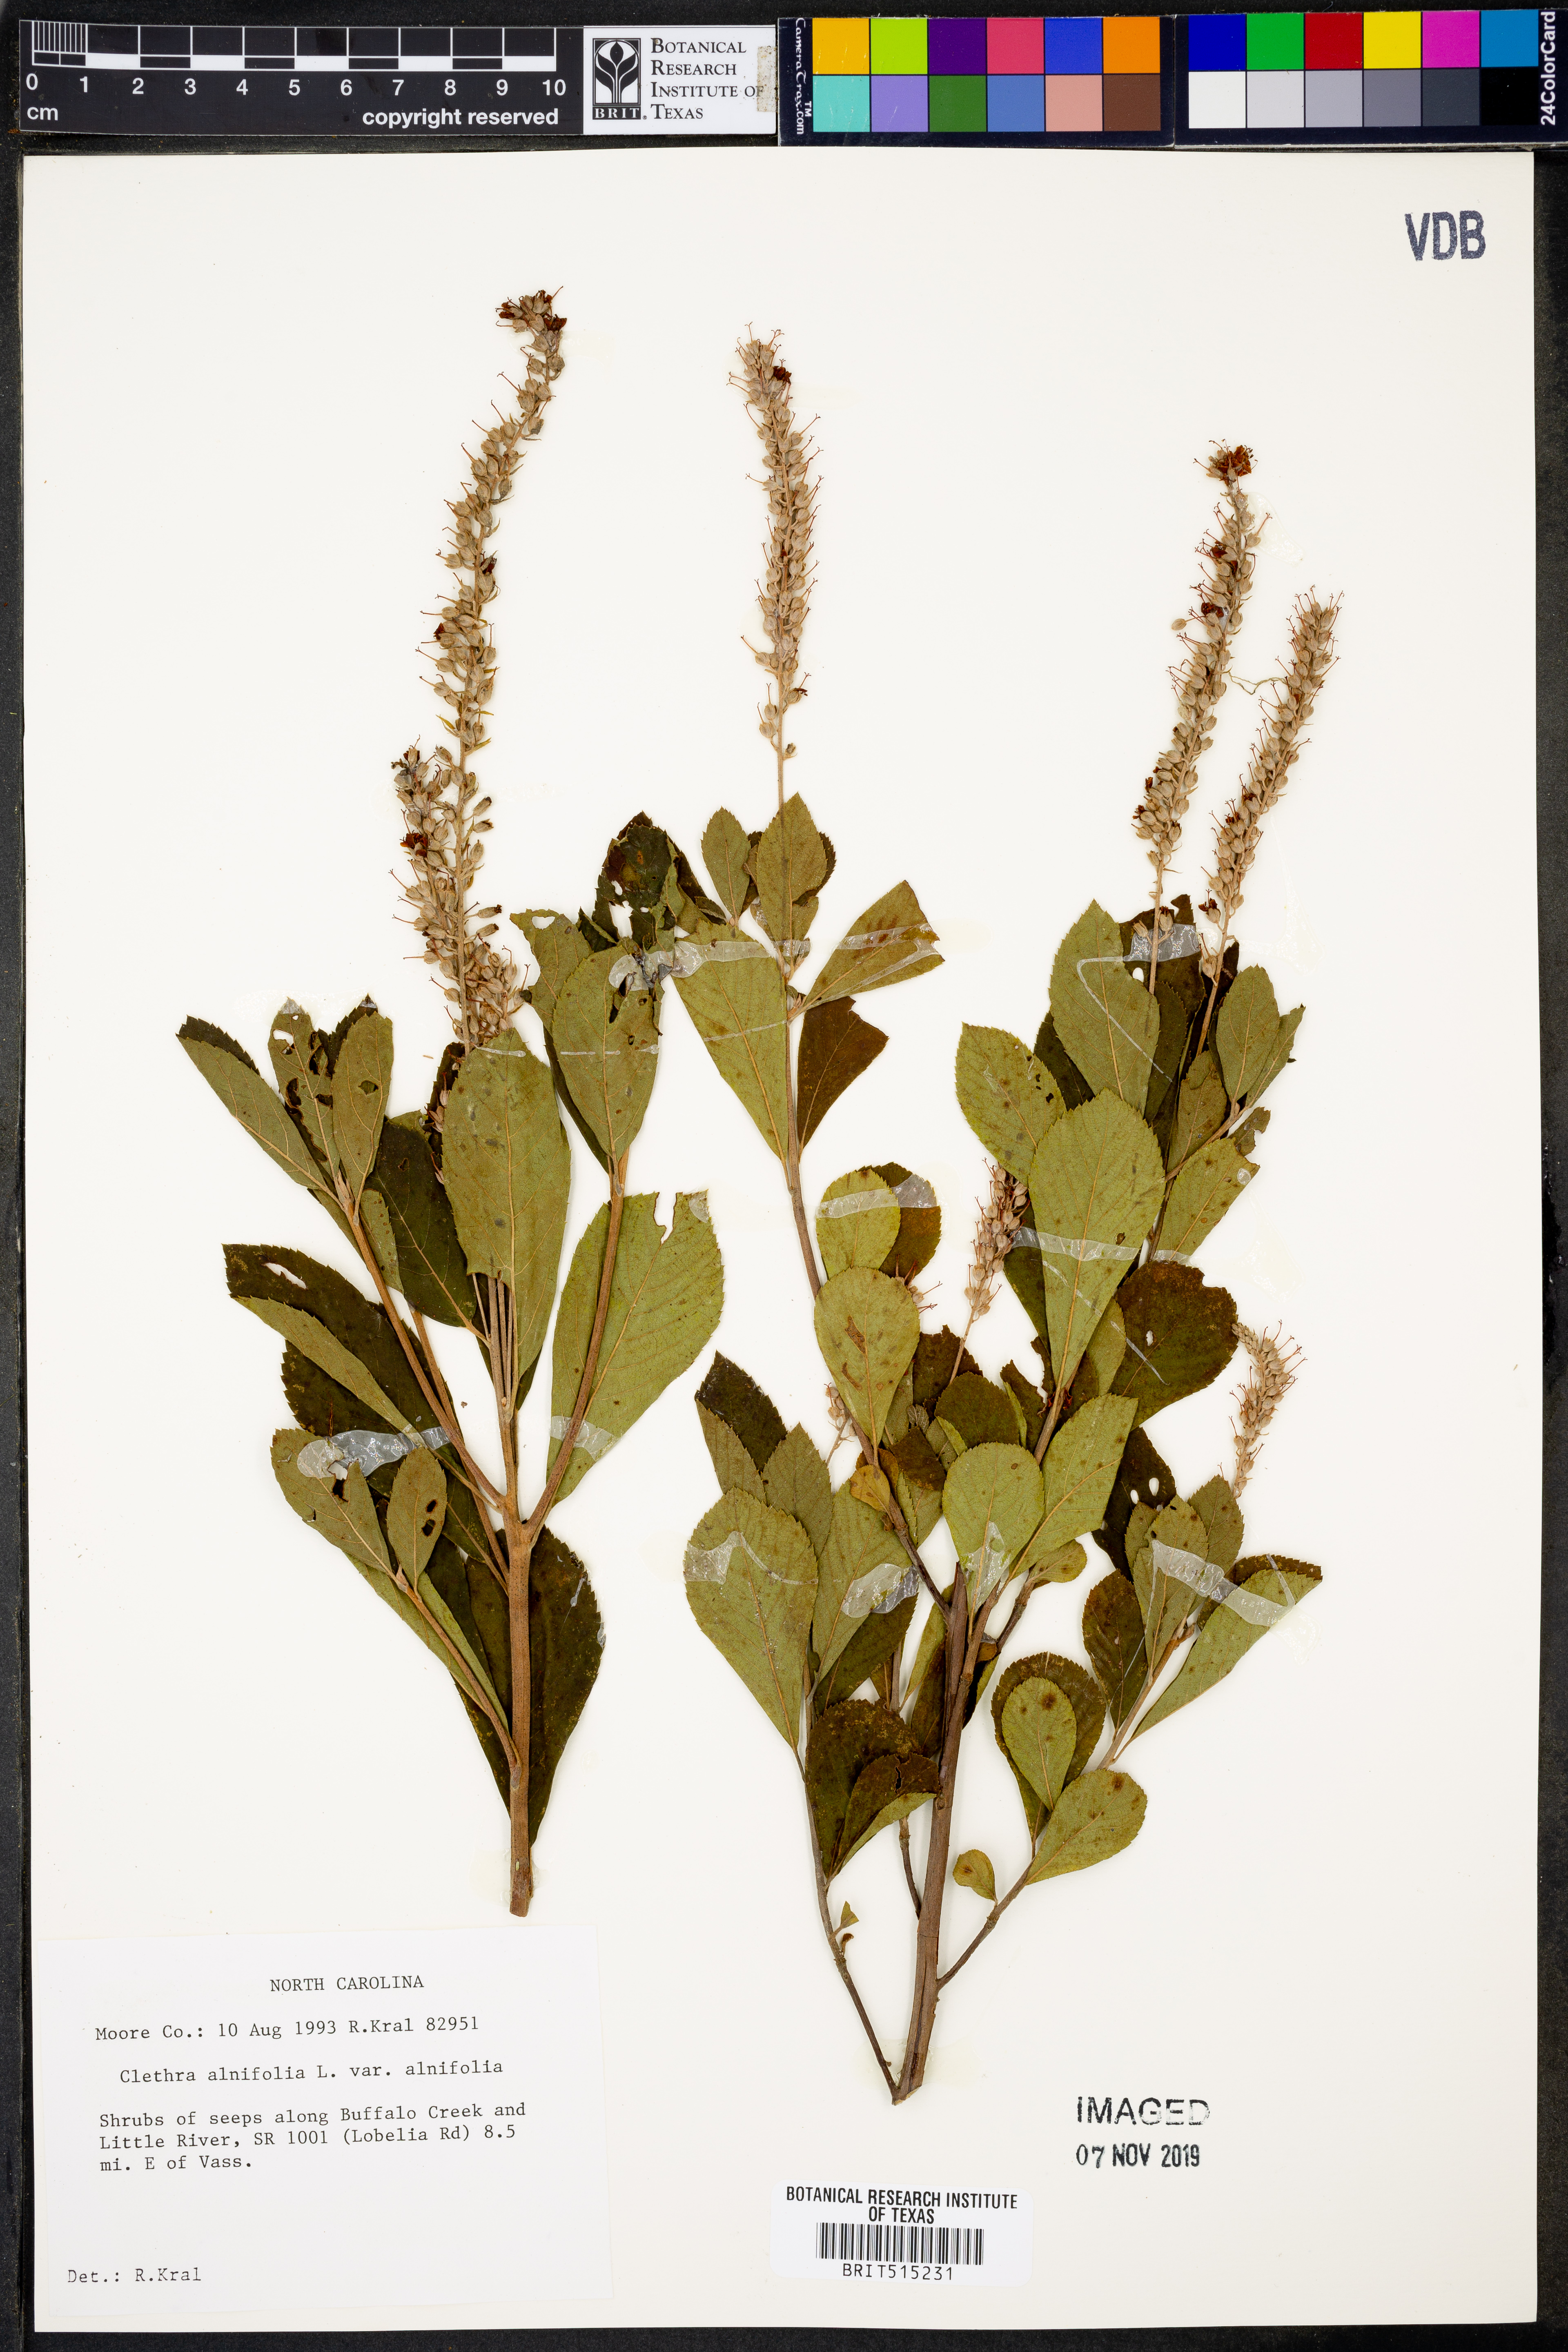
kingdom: Plantae
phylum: Tracheophyta
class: Magnoliopsida
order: Ericales
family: Clethraceae
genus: Clethra
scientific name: Clethra alnifolia
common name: Sweet pepperbush
